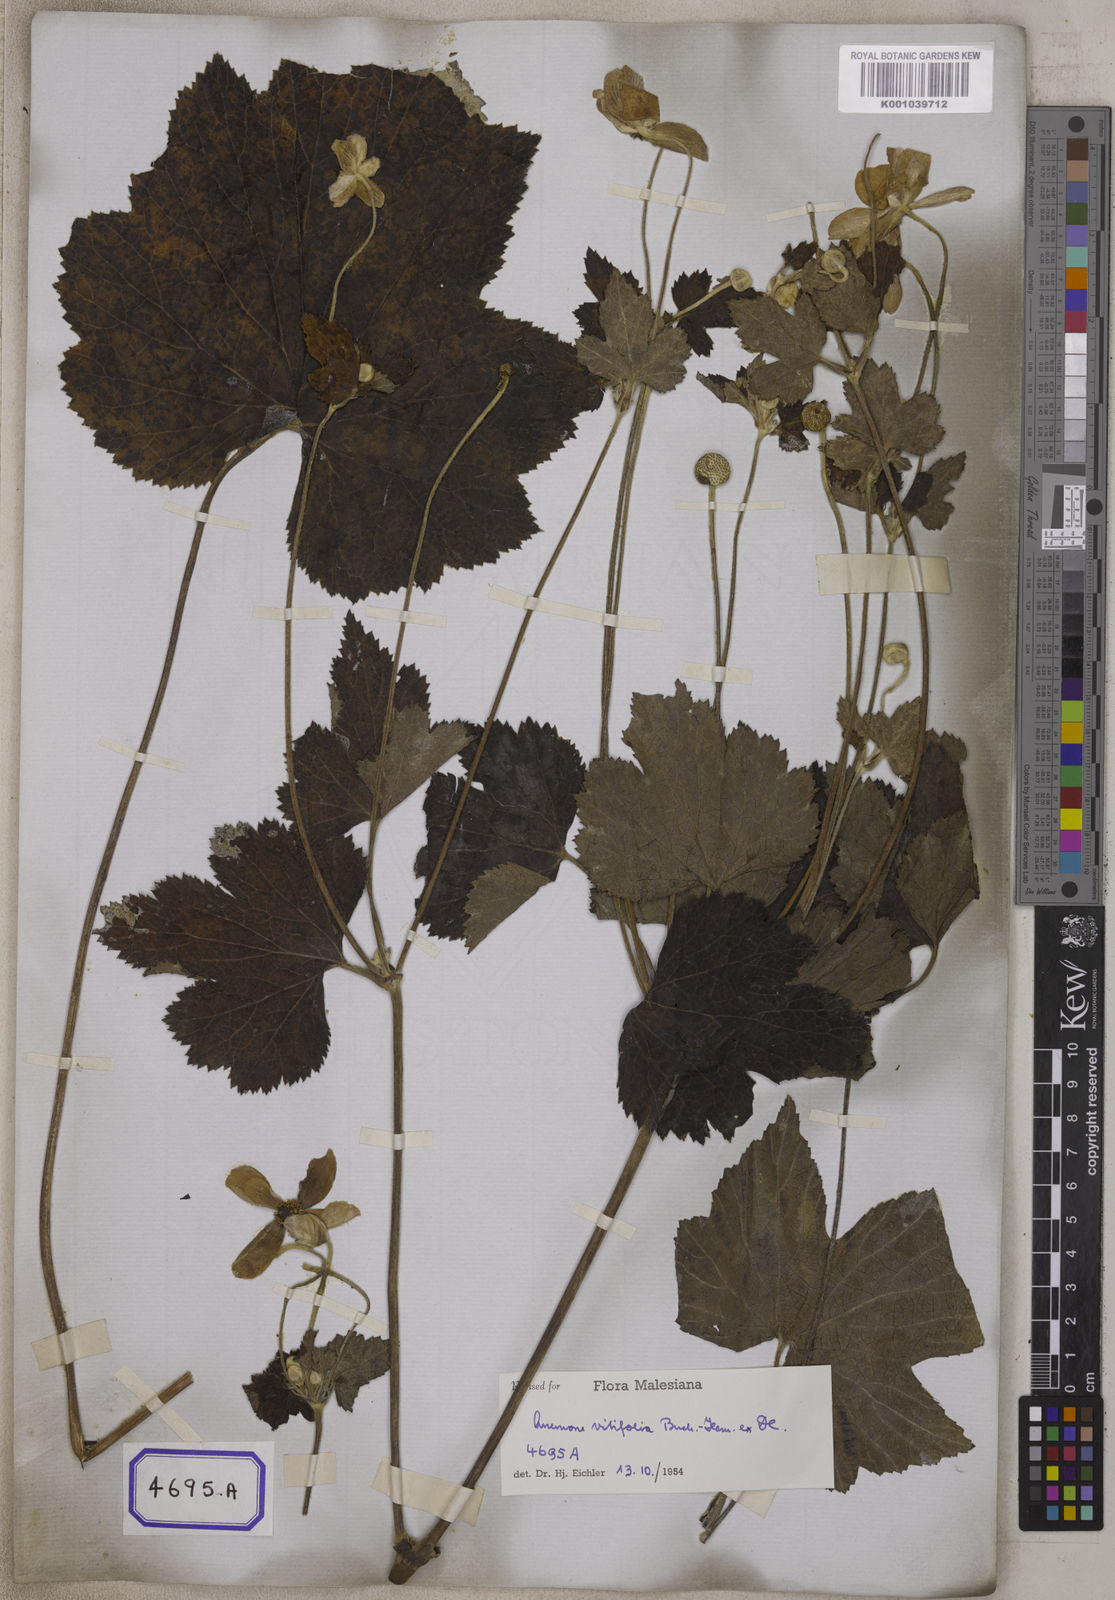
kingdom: Plantae
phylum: Tracheophyta
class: Magnoliopsida
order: Ranunculales
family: Ranunculaceae
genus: Eriocapitella
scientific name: Eriocapitella vitifolia
